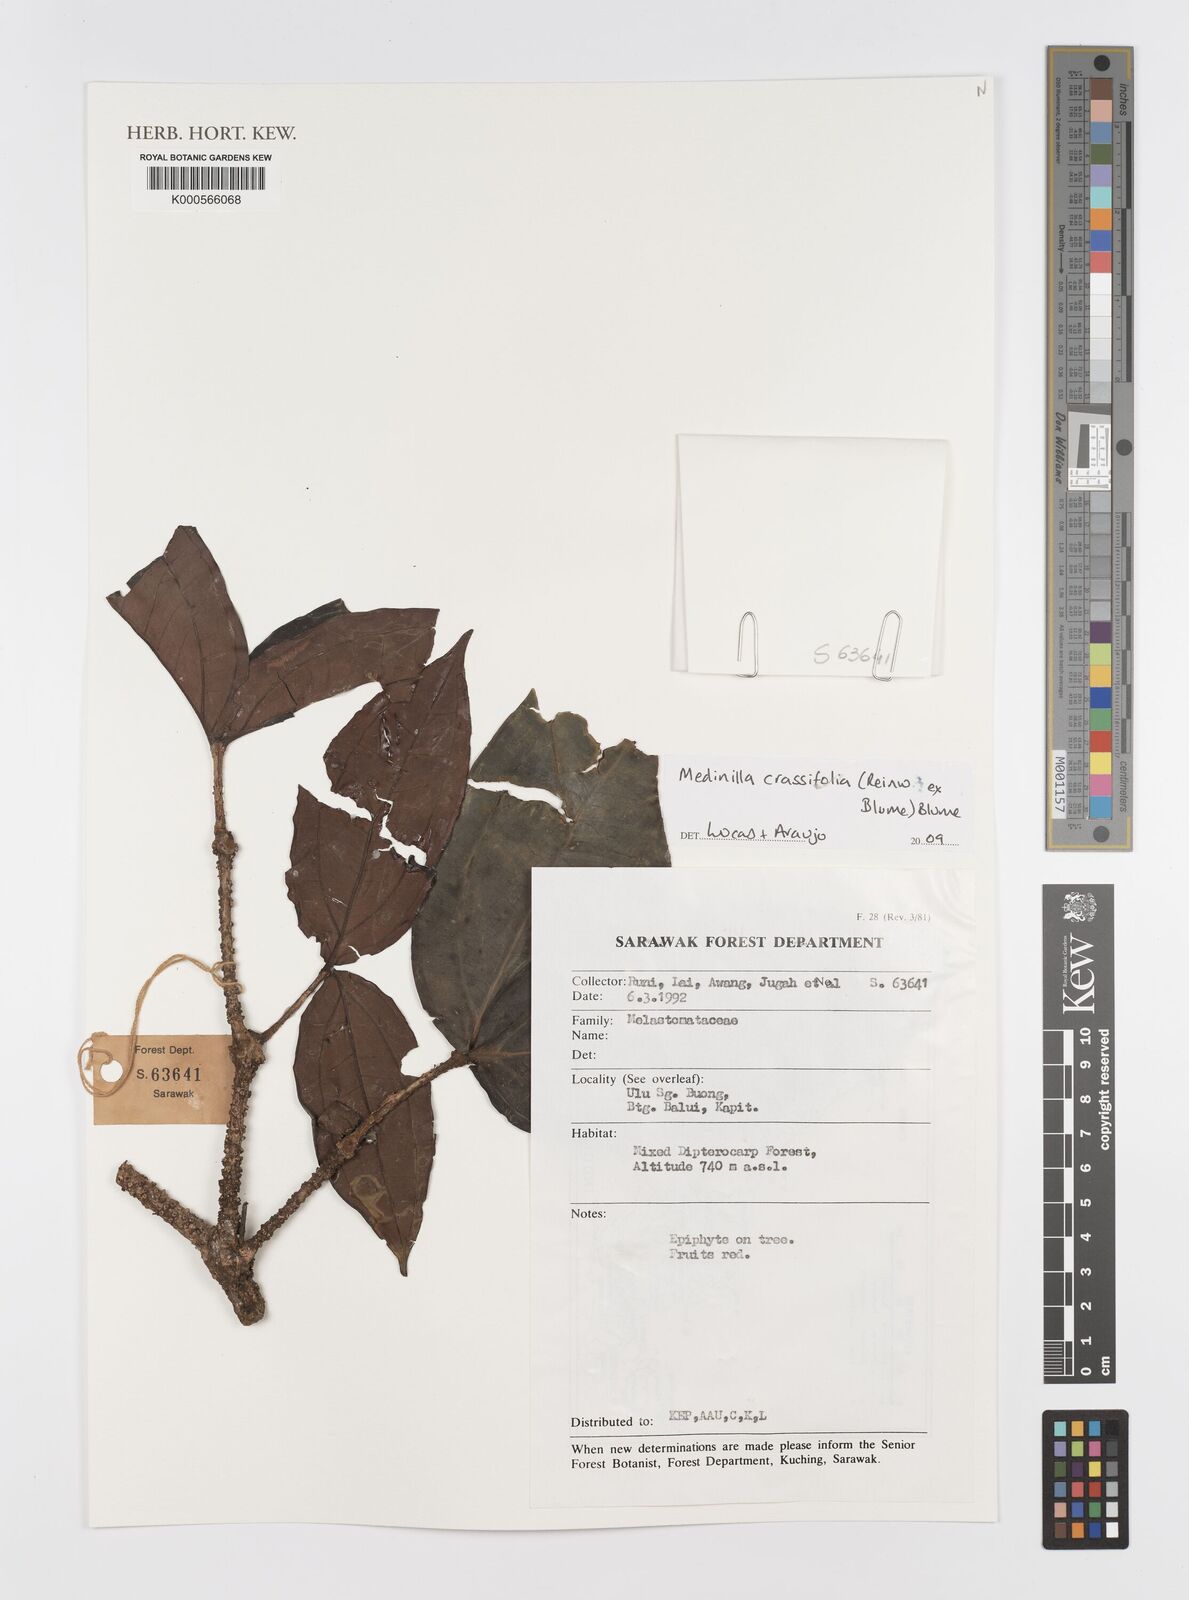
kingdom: Plantae
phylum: Tracheophyta
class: Magnoliopsida
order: Myrtales
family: Melastomataceae
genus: Medinilla
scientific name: Medinilla crassifolia
